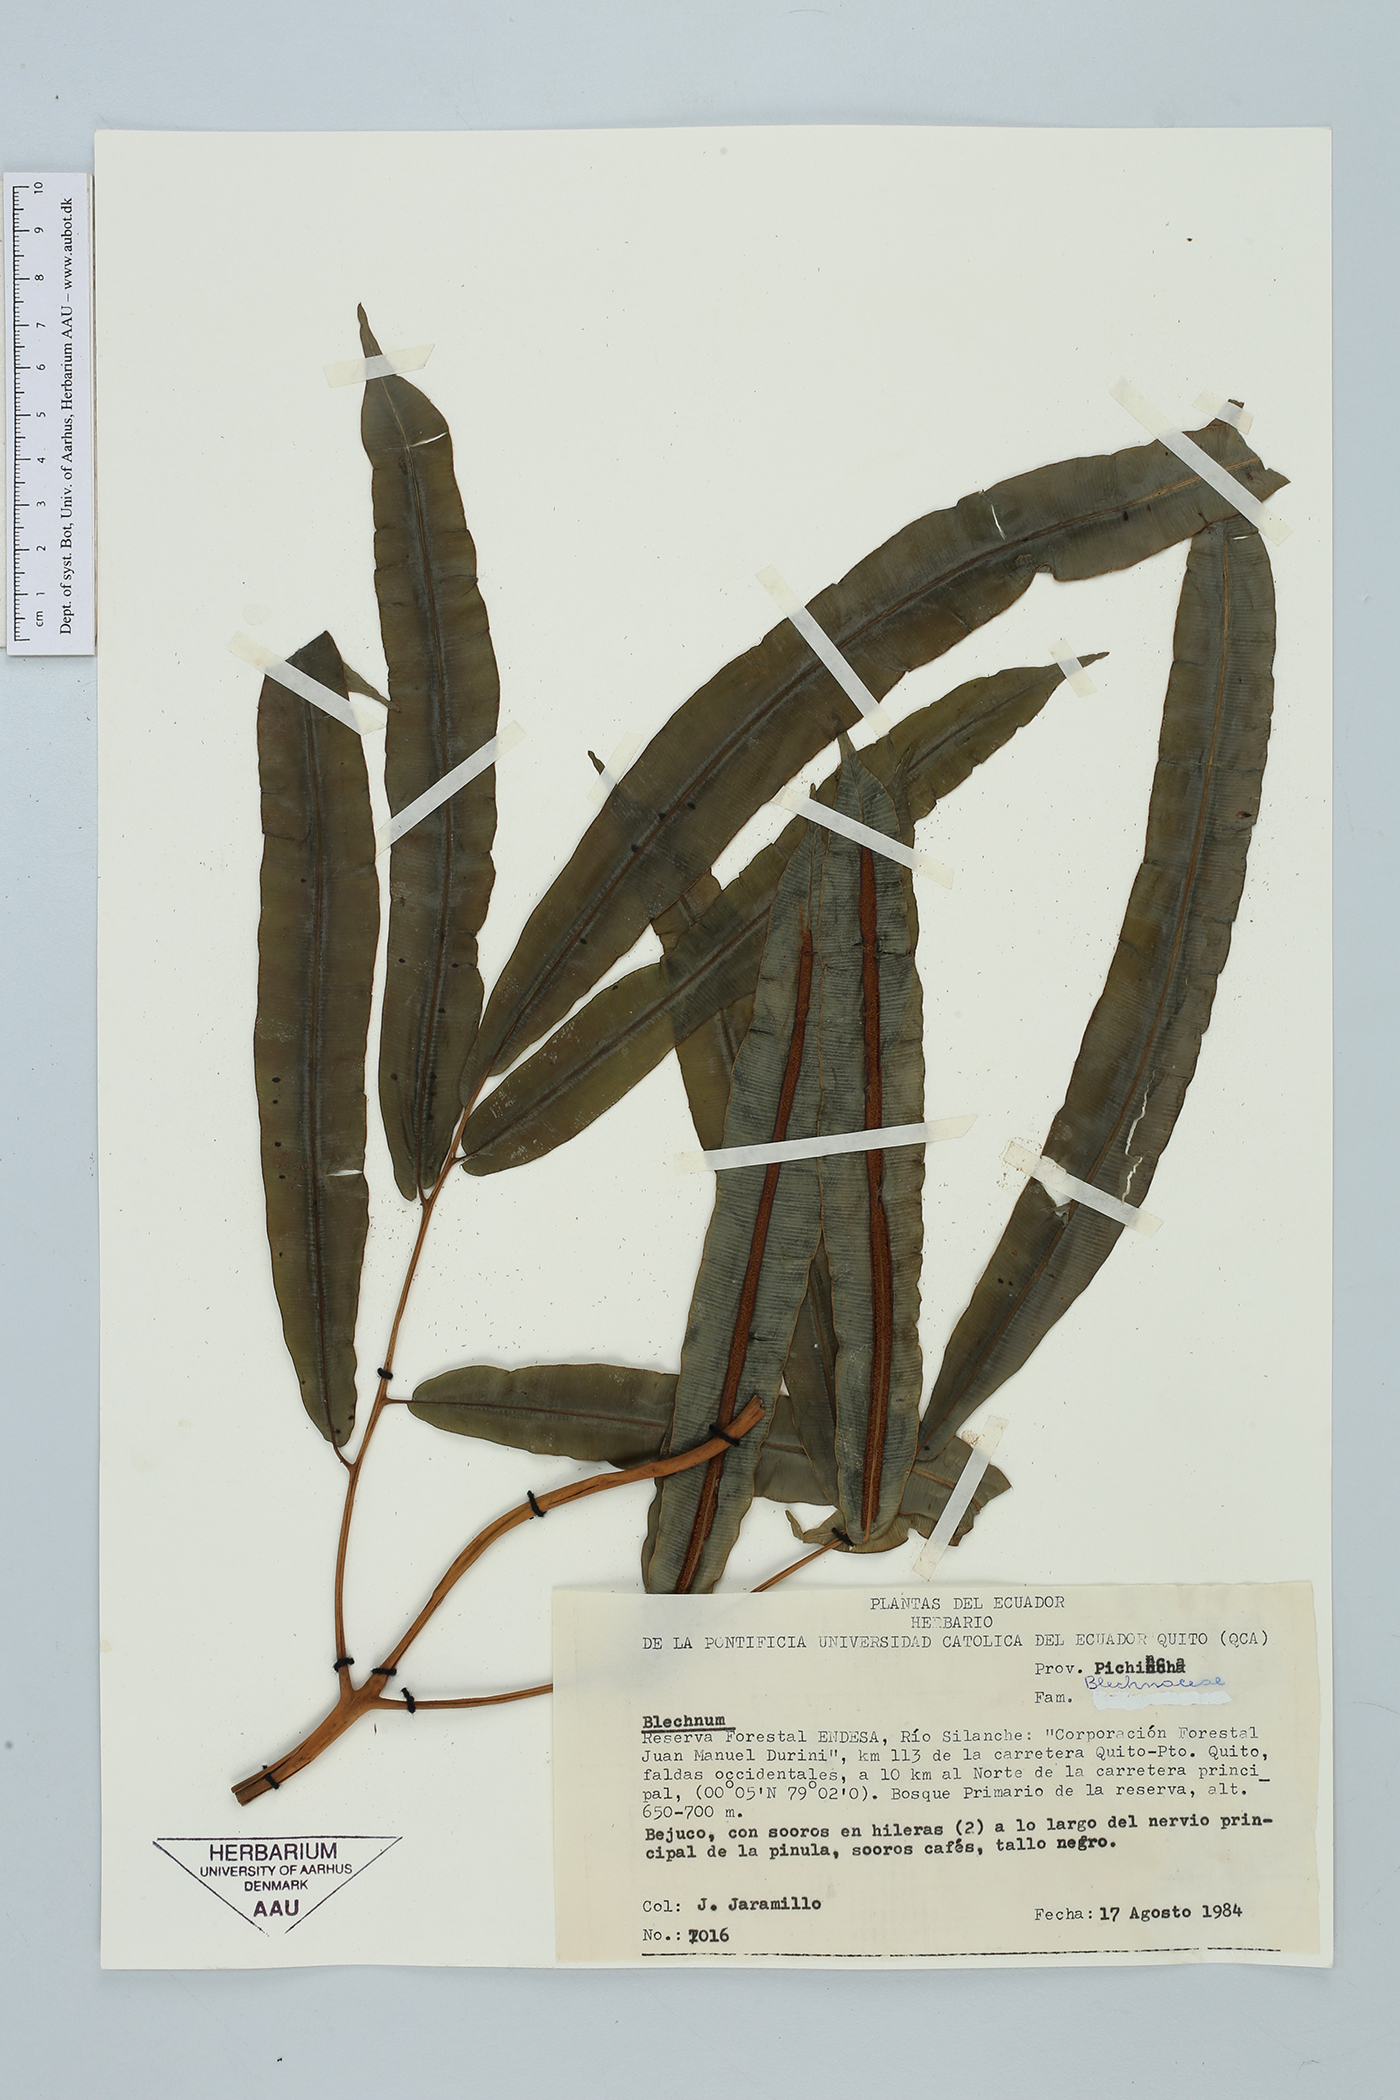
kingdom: Plantae
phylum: Tracheophyta
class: Polypodiopsida
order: Polypodiales
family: Aspleniaceae
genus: Salpichlaena
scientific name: Salpichlaena
